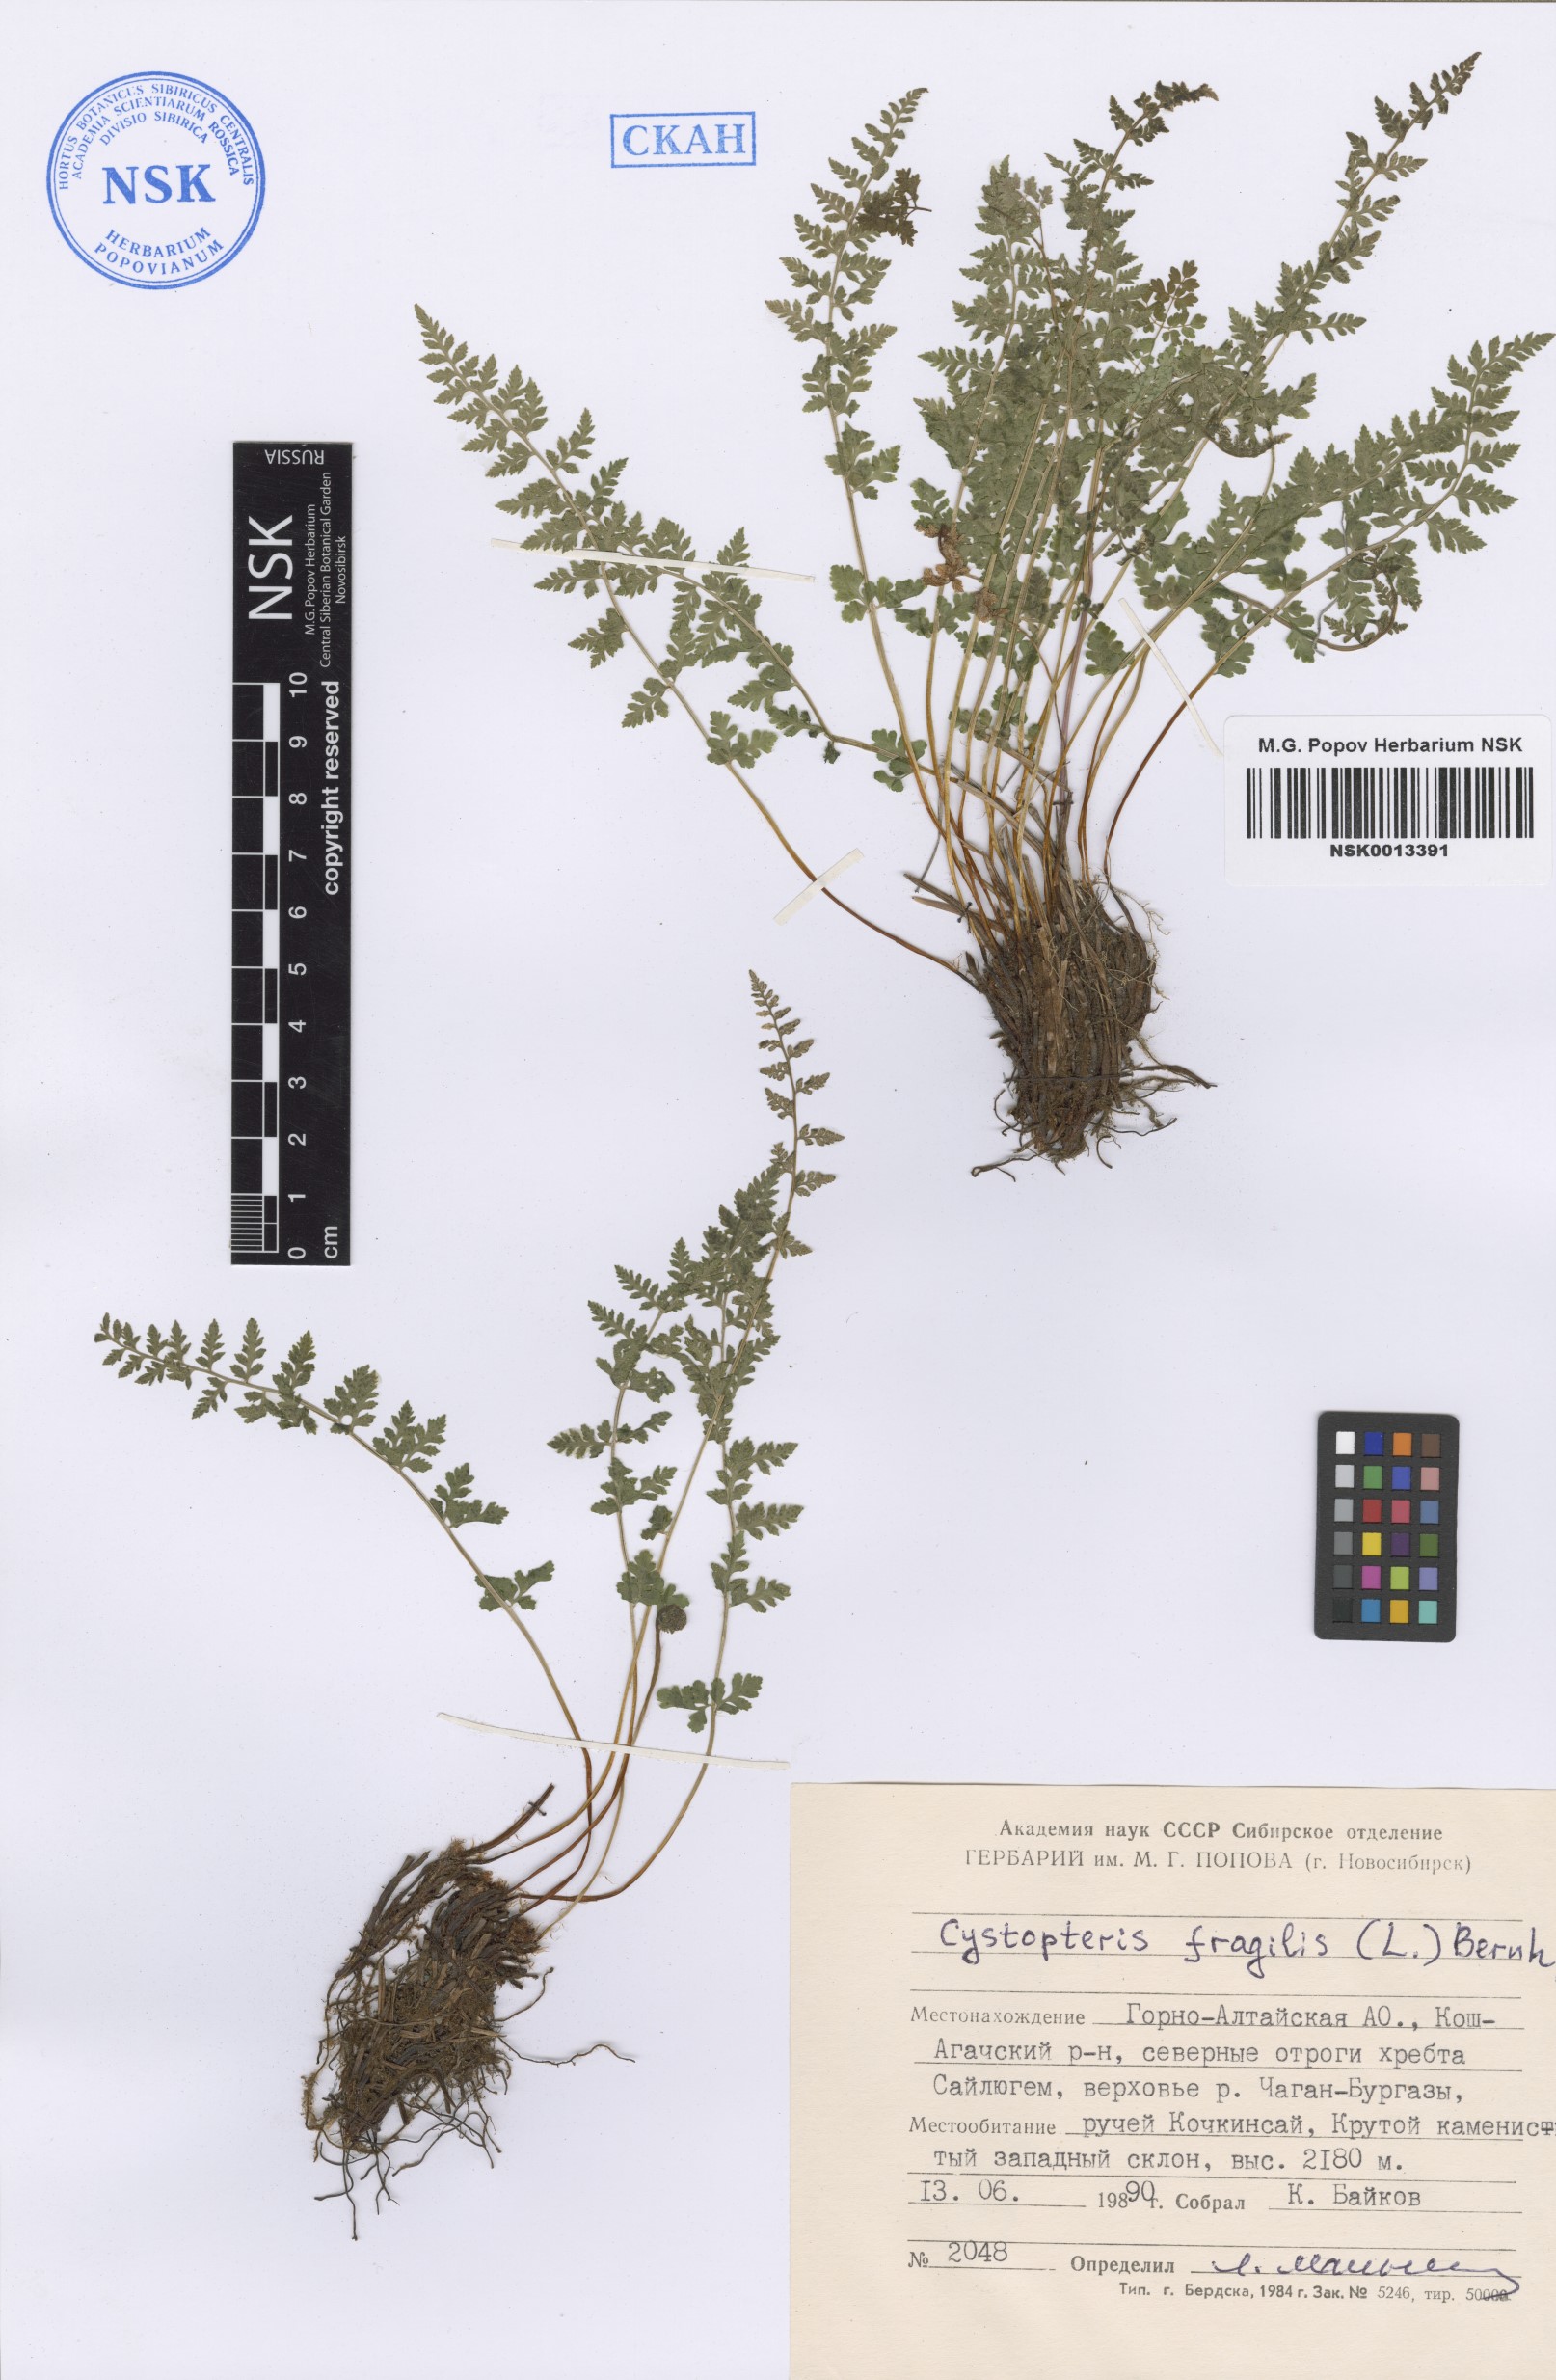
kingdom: Plantae
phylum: Tracheophyta
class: Polypodiopsida
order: Polypodiales
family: Cystopteridaceae
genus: Cystopteris
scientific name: Cystopteris fragilis
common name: Brittle bladder fern
